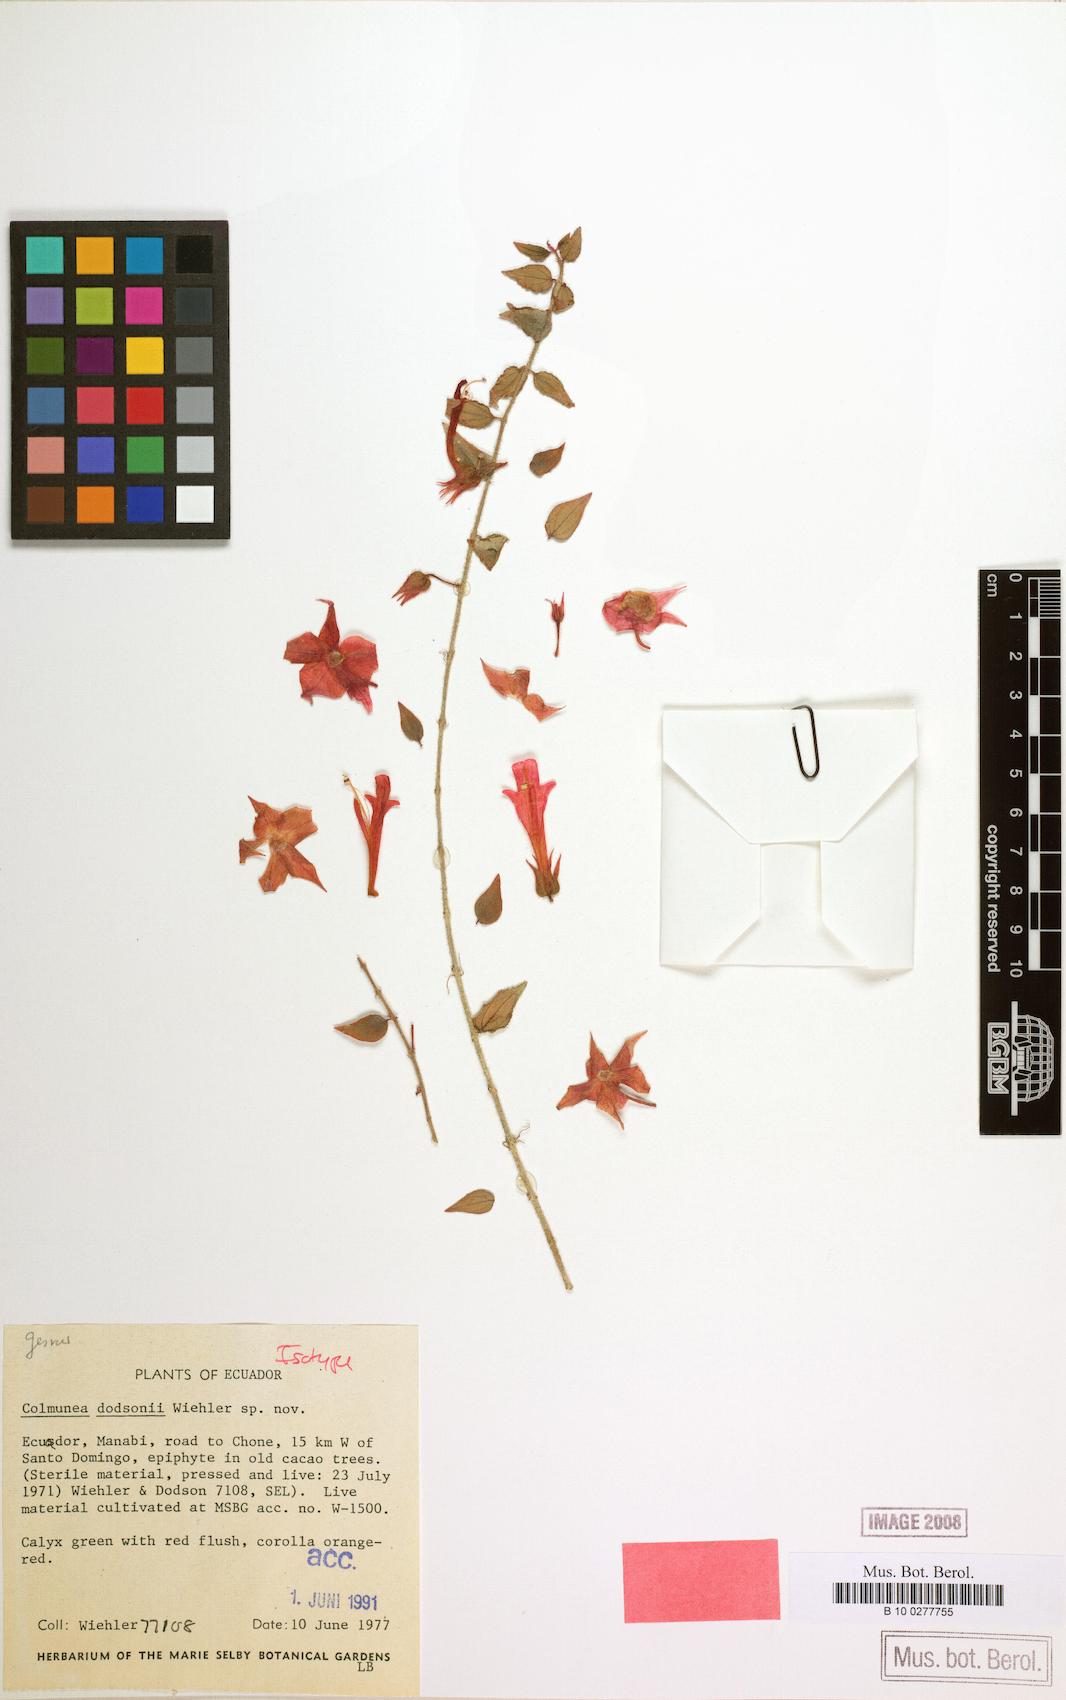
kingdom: Plantae
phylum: Tracheophyta
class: Magnoliopsida
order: Lamiales
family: Gesneriaceae
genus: Columnea
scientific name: Columnea kienastiana
